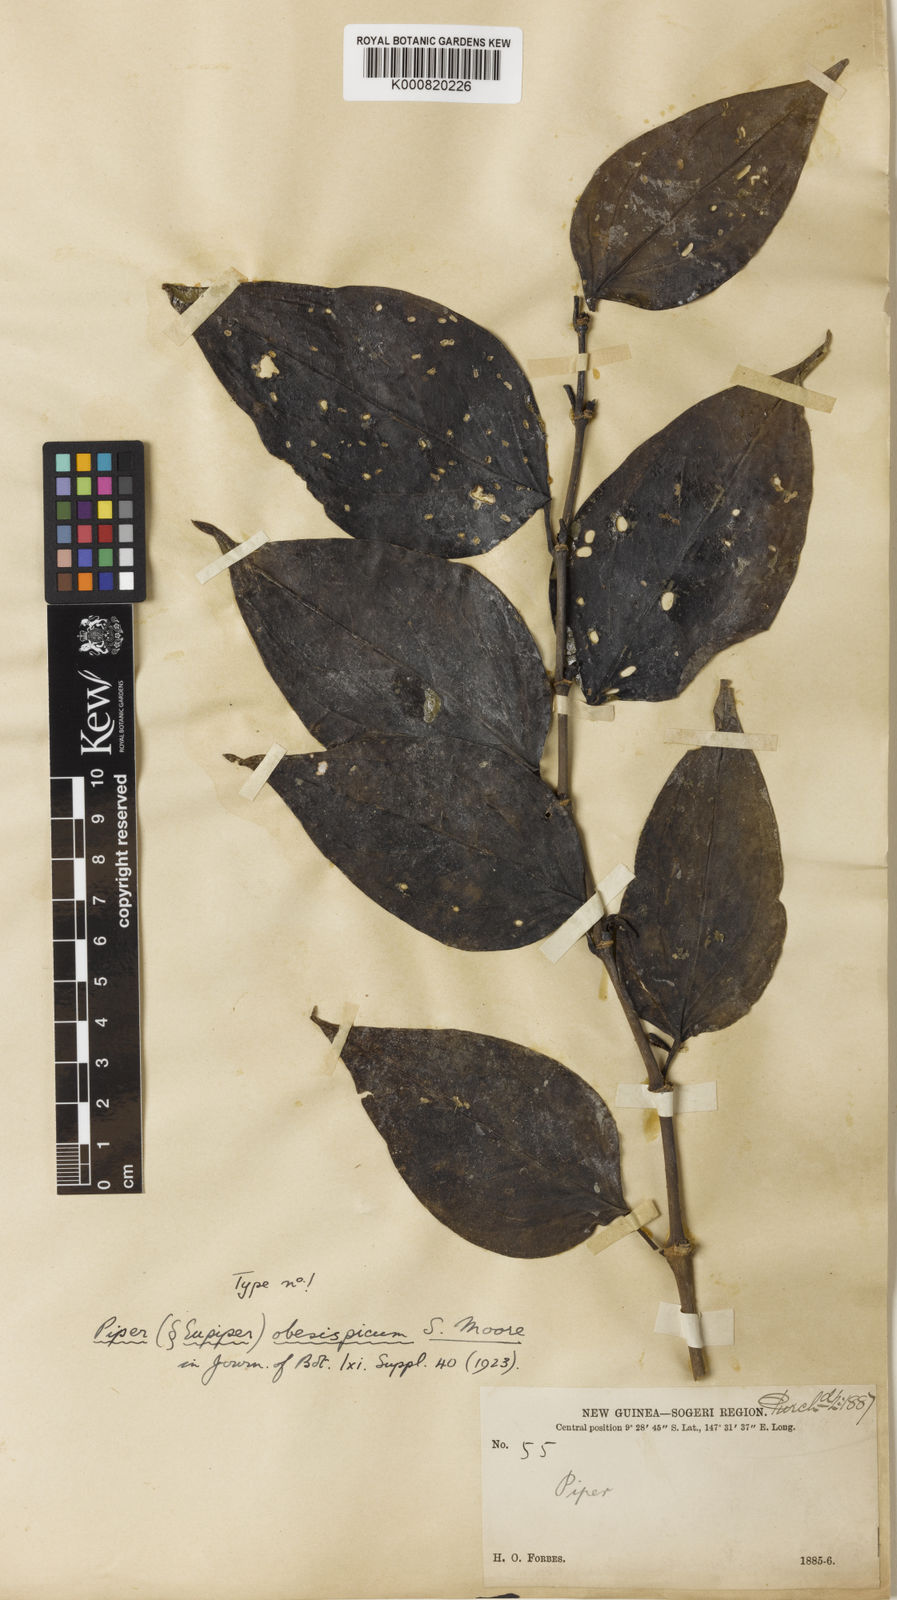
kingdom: Plantae
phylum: Tracheophyta
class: Magnoliopsida
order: Piperales
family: Piperaceae
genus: Piper
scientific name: Piper celtidiforme
